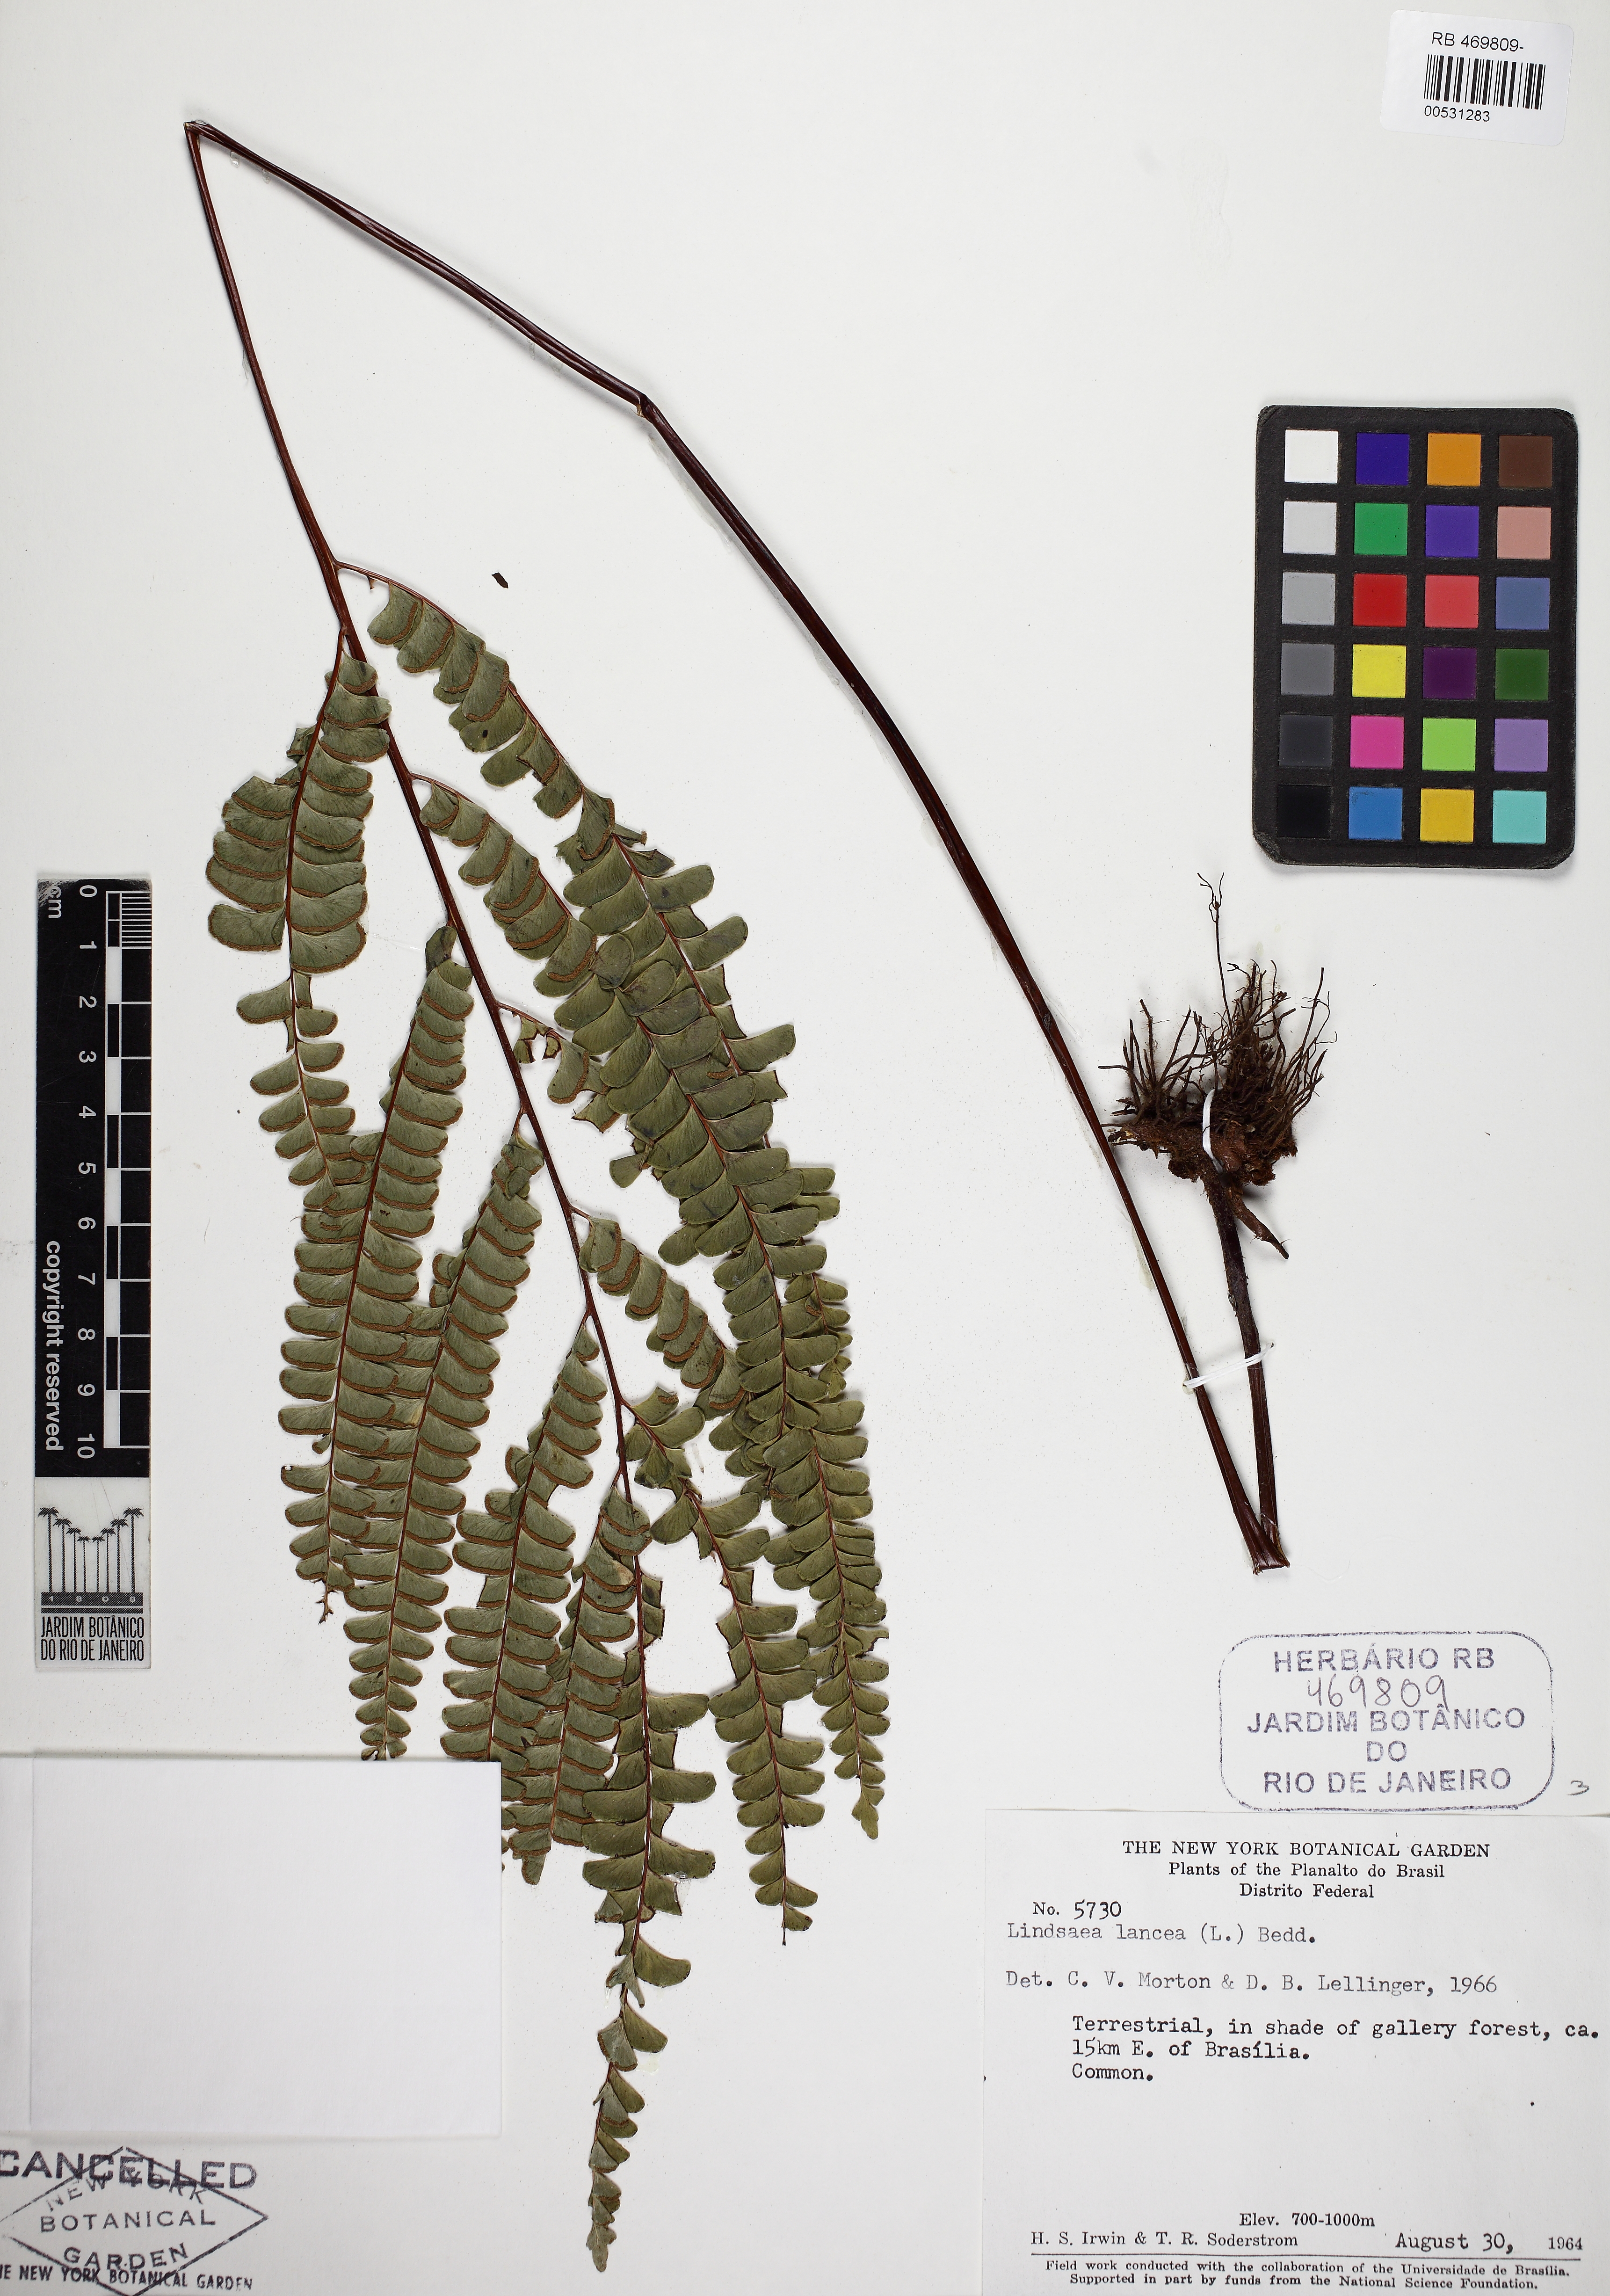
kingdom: Plantae
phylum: Tracheophyta
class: Polypodiopsida
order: Polypodiales
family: Lindsaeaceae
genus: Lindsaea
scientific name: Lindsaea lancea
